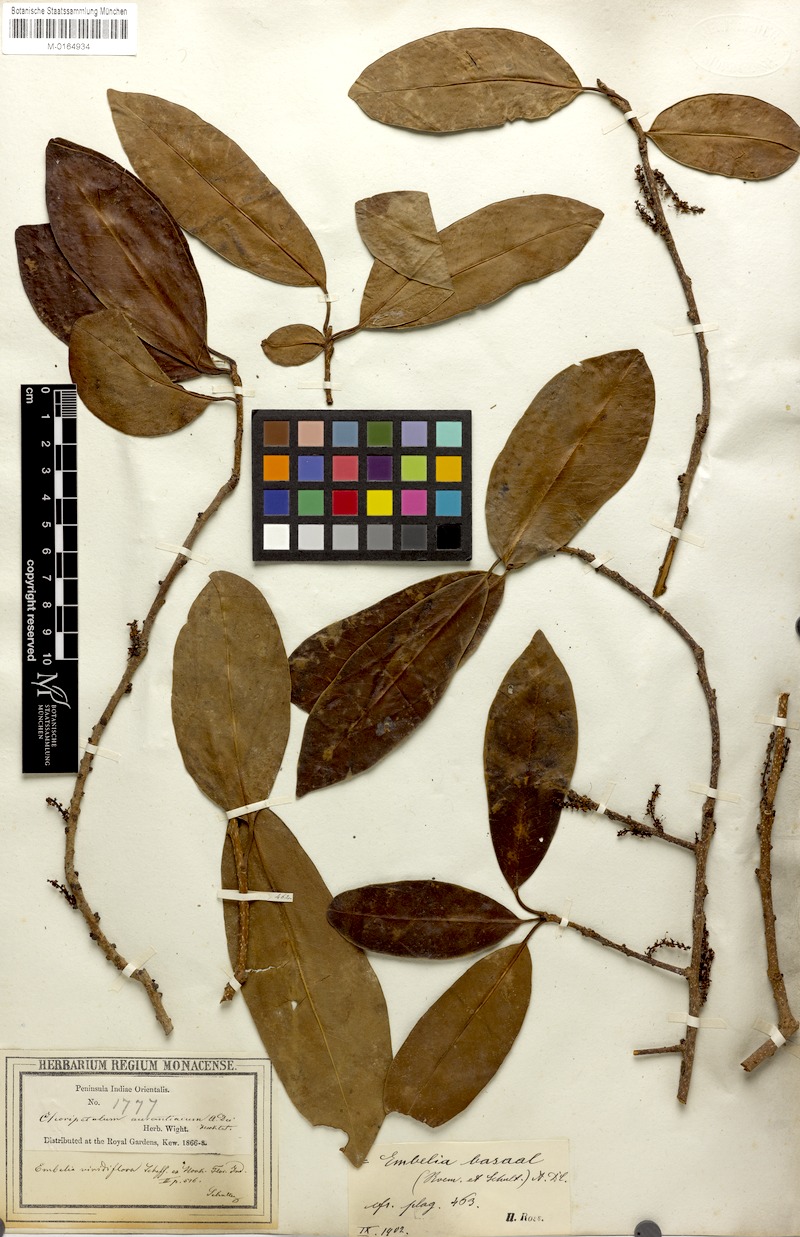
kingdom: Plantae
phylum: Tracheophyta
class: Magnoliopsida
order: Ericales
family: Primulaceae
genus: Embelia
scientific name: Embelia viridiflora
